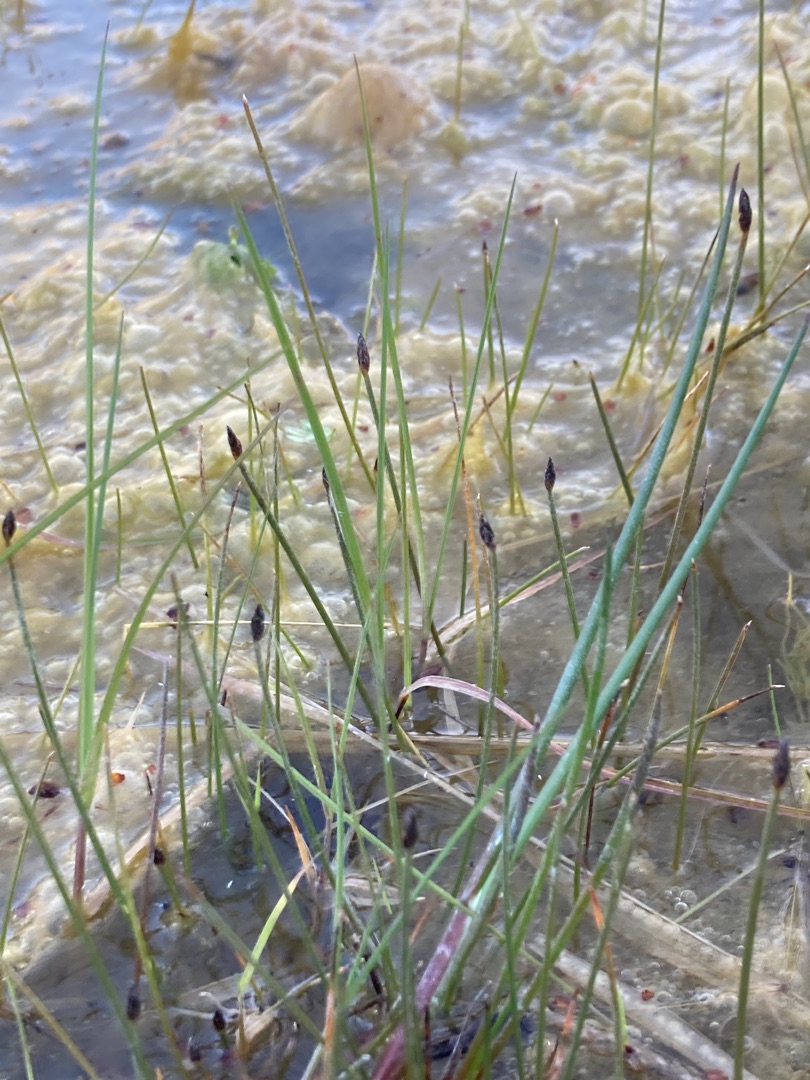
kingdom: Plantae
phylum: Tracheophyta
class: Liliopsida
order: Poales
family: Cyperaceae
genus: Eleocharis
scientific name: Eleocharis acicularis
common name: Nåle-sumpstrå
